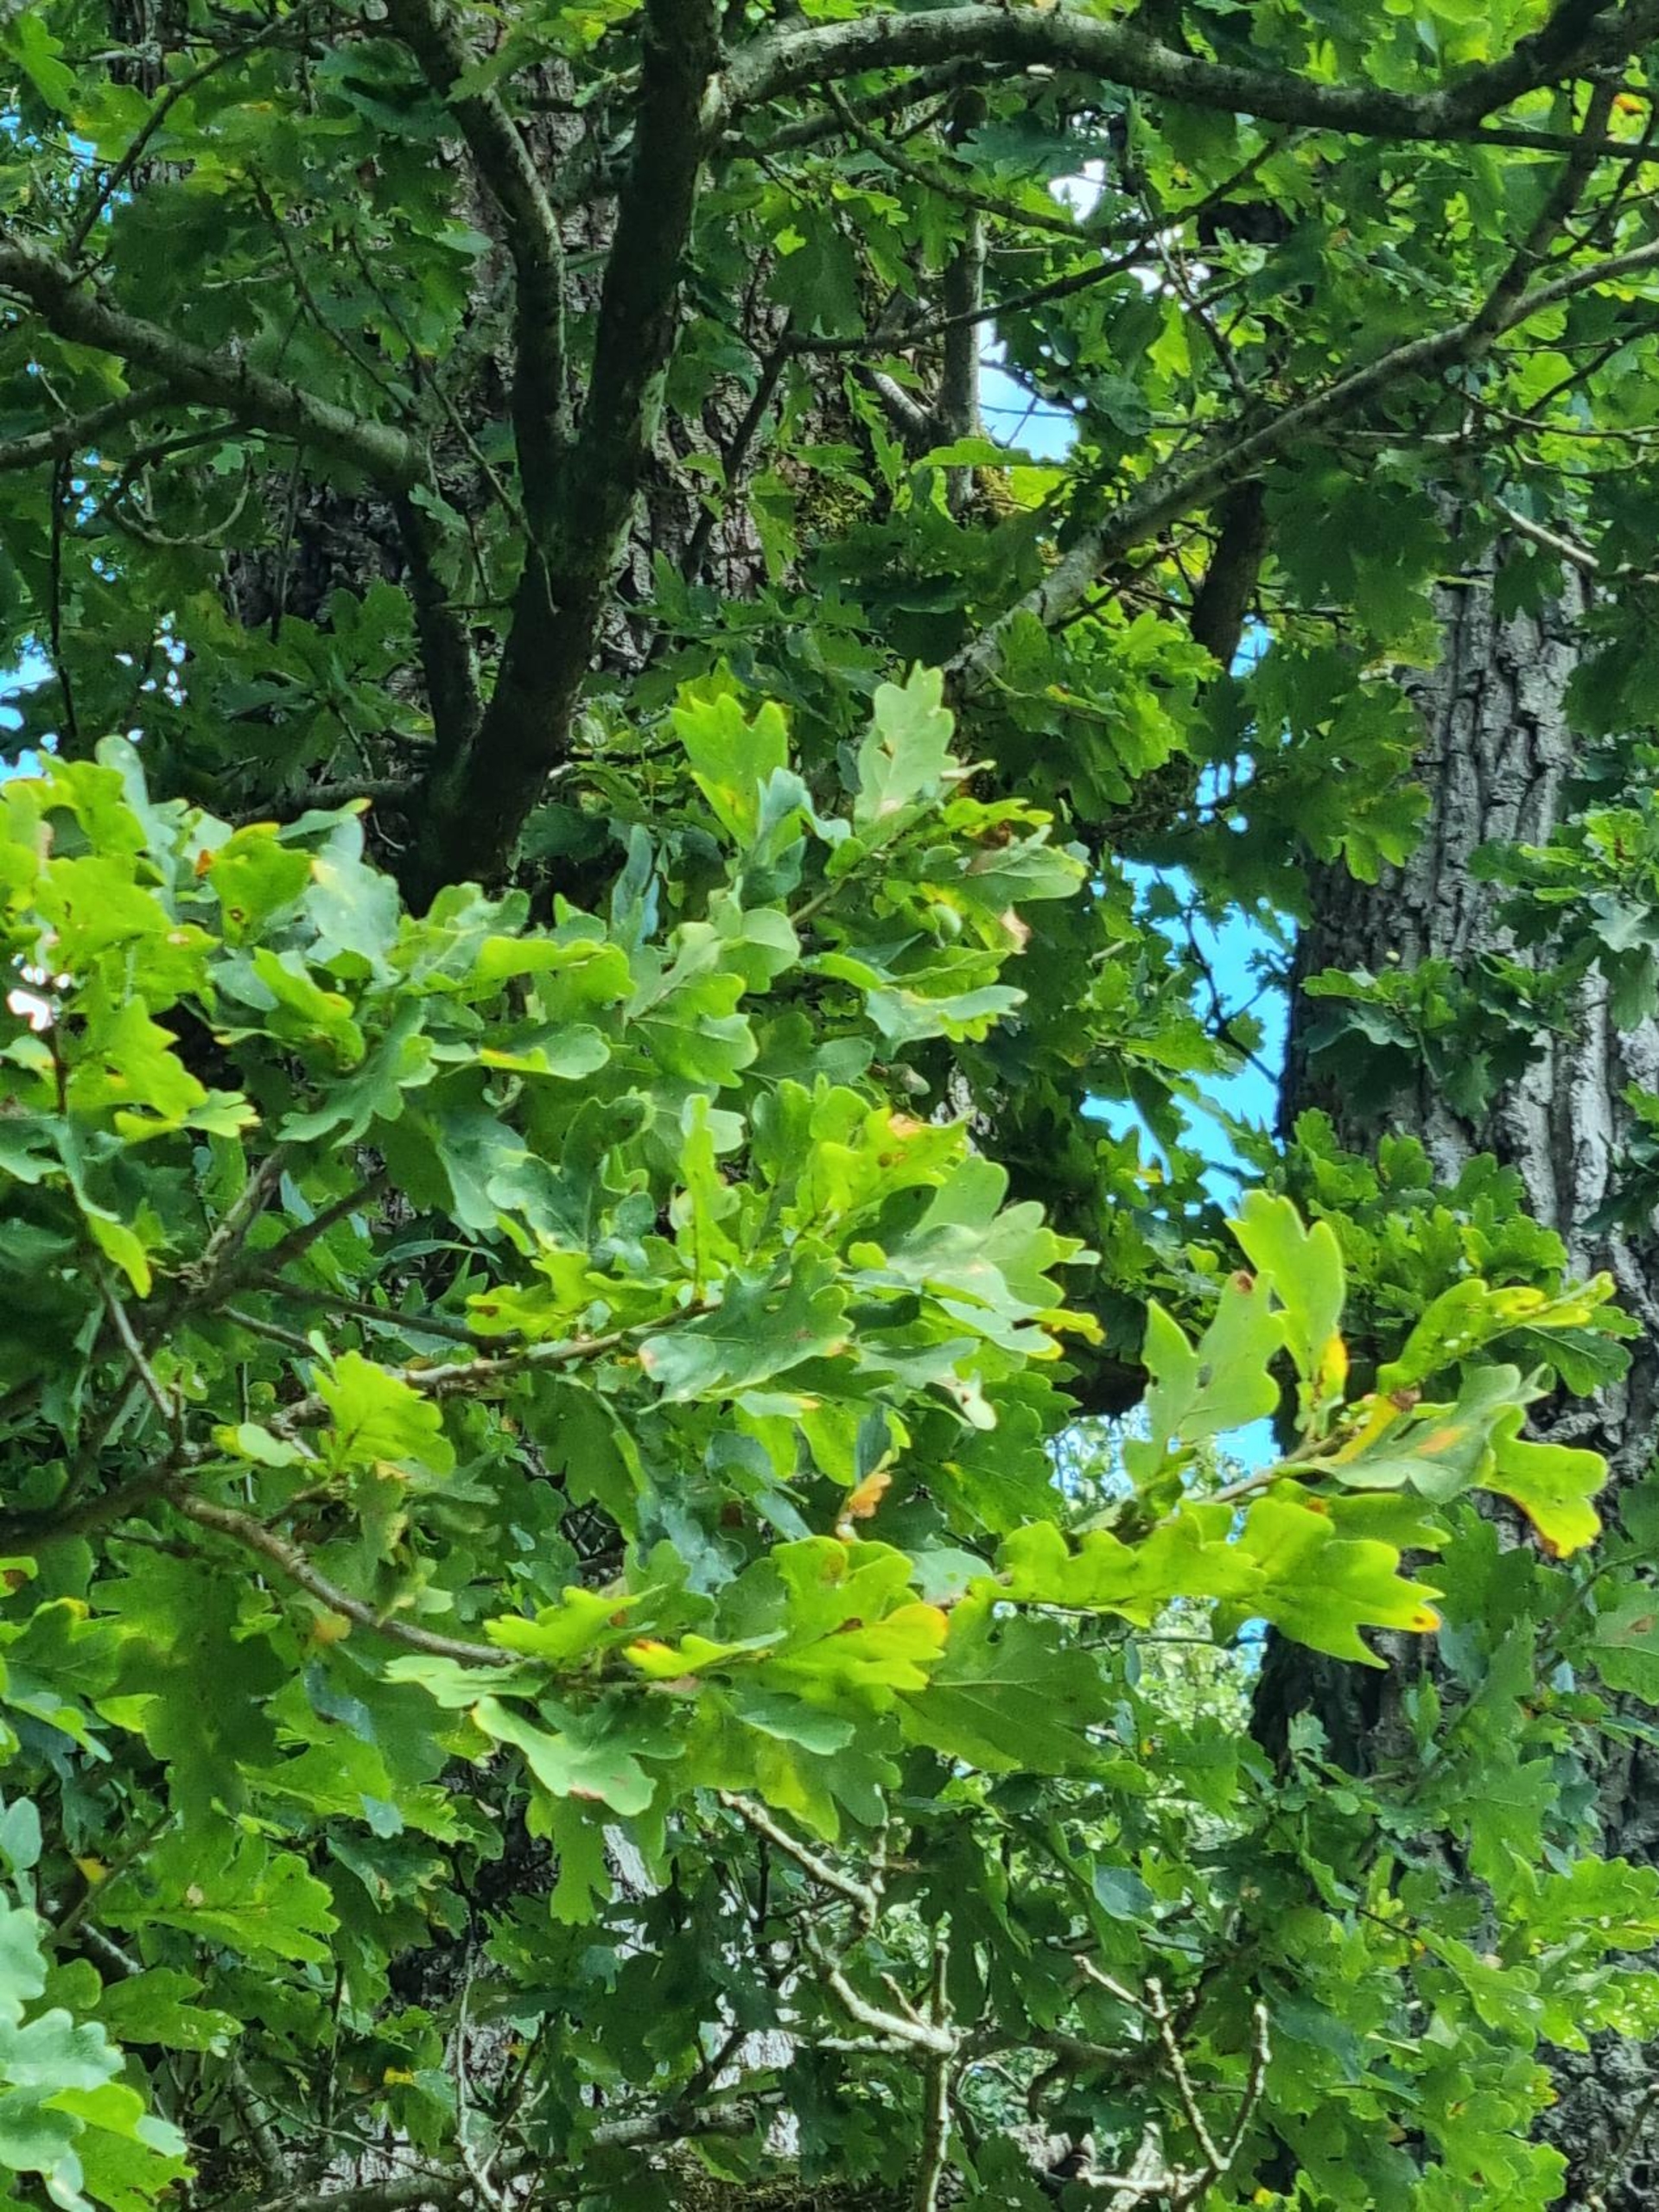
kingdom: Plantae
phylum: Tracheophyta
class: Magnoliopsida
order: Fagales
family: Fagaceae
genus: Quercus
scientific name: Quercus robur
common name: Stilk-eg/almindelig eg
